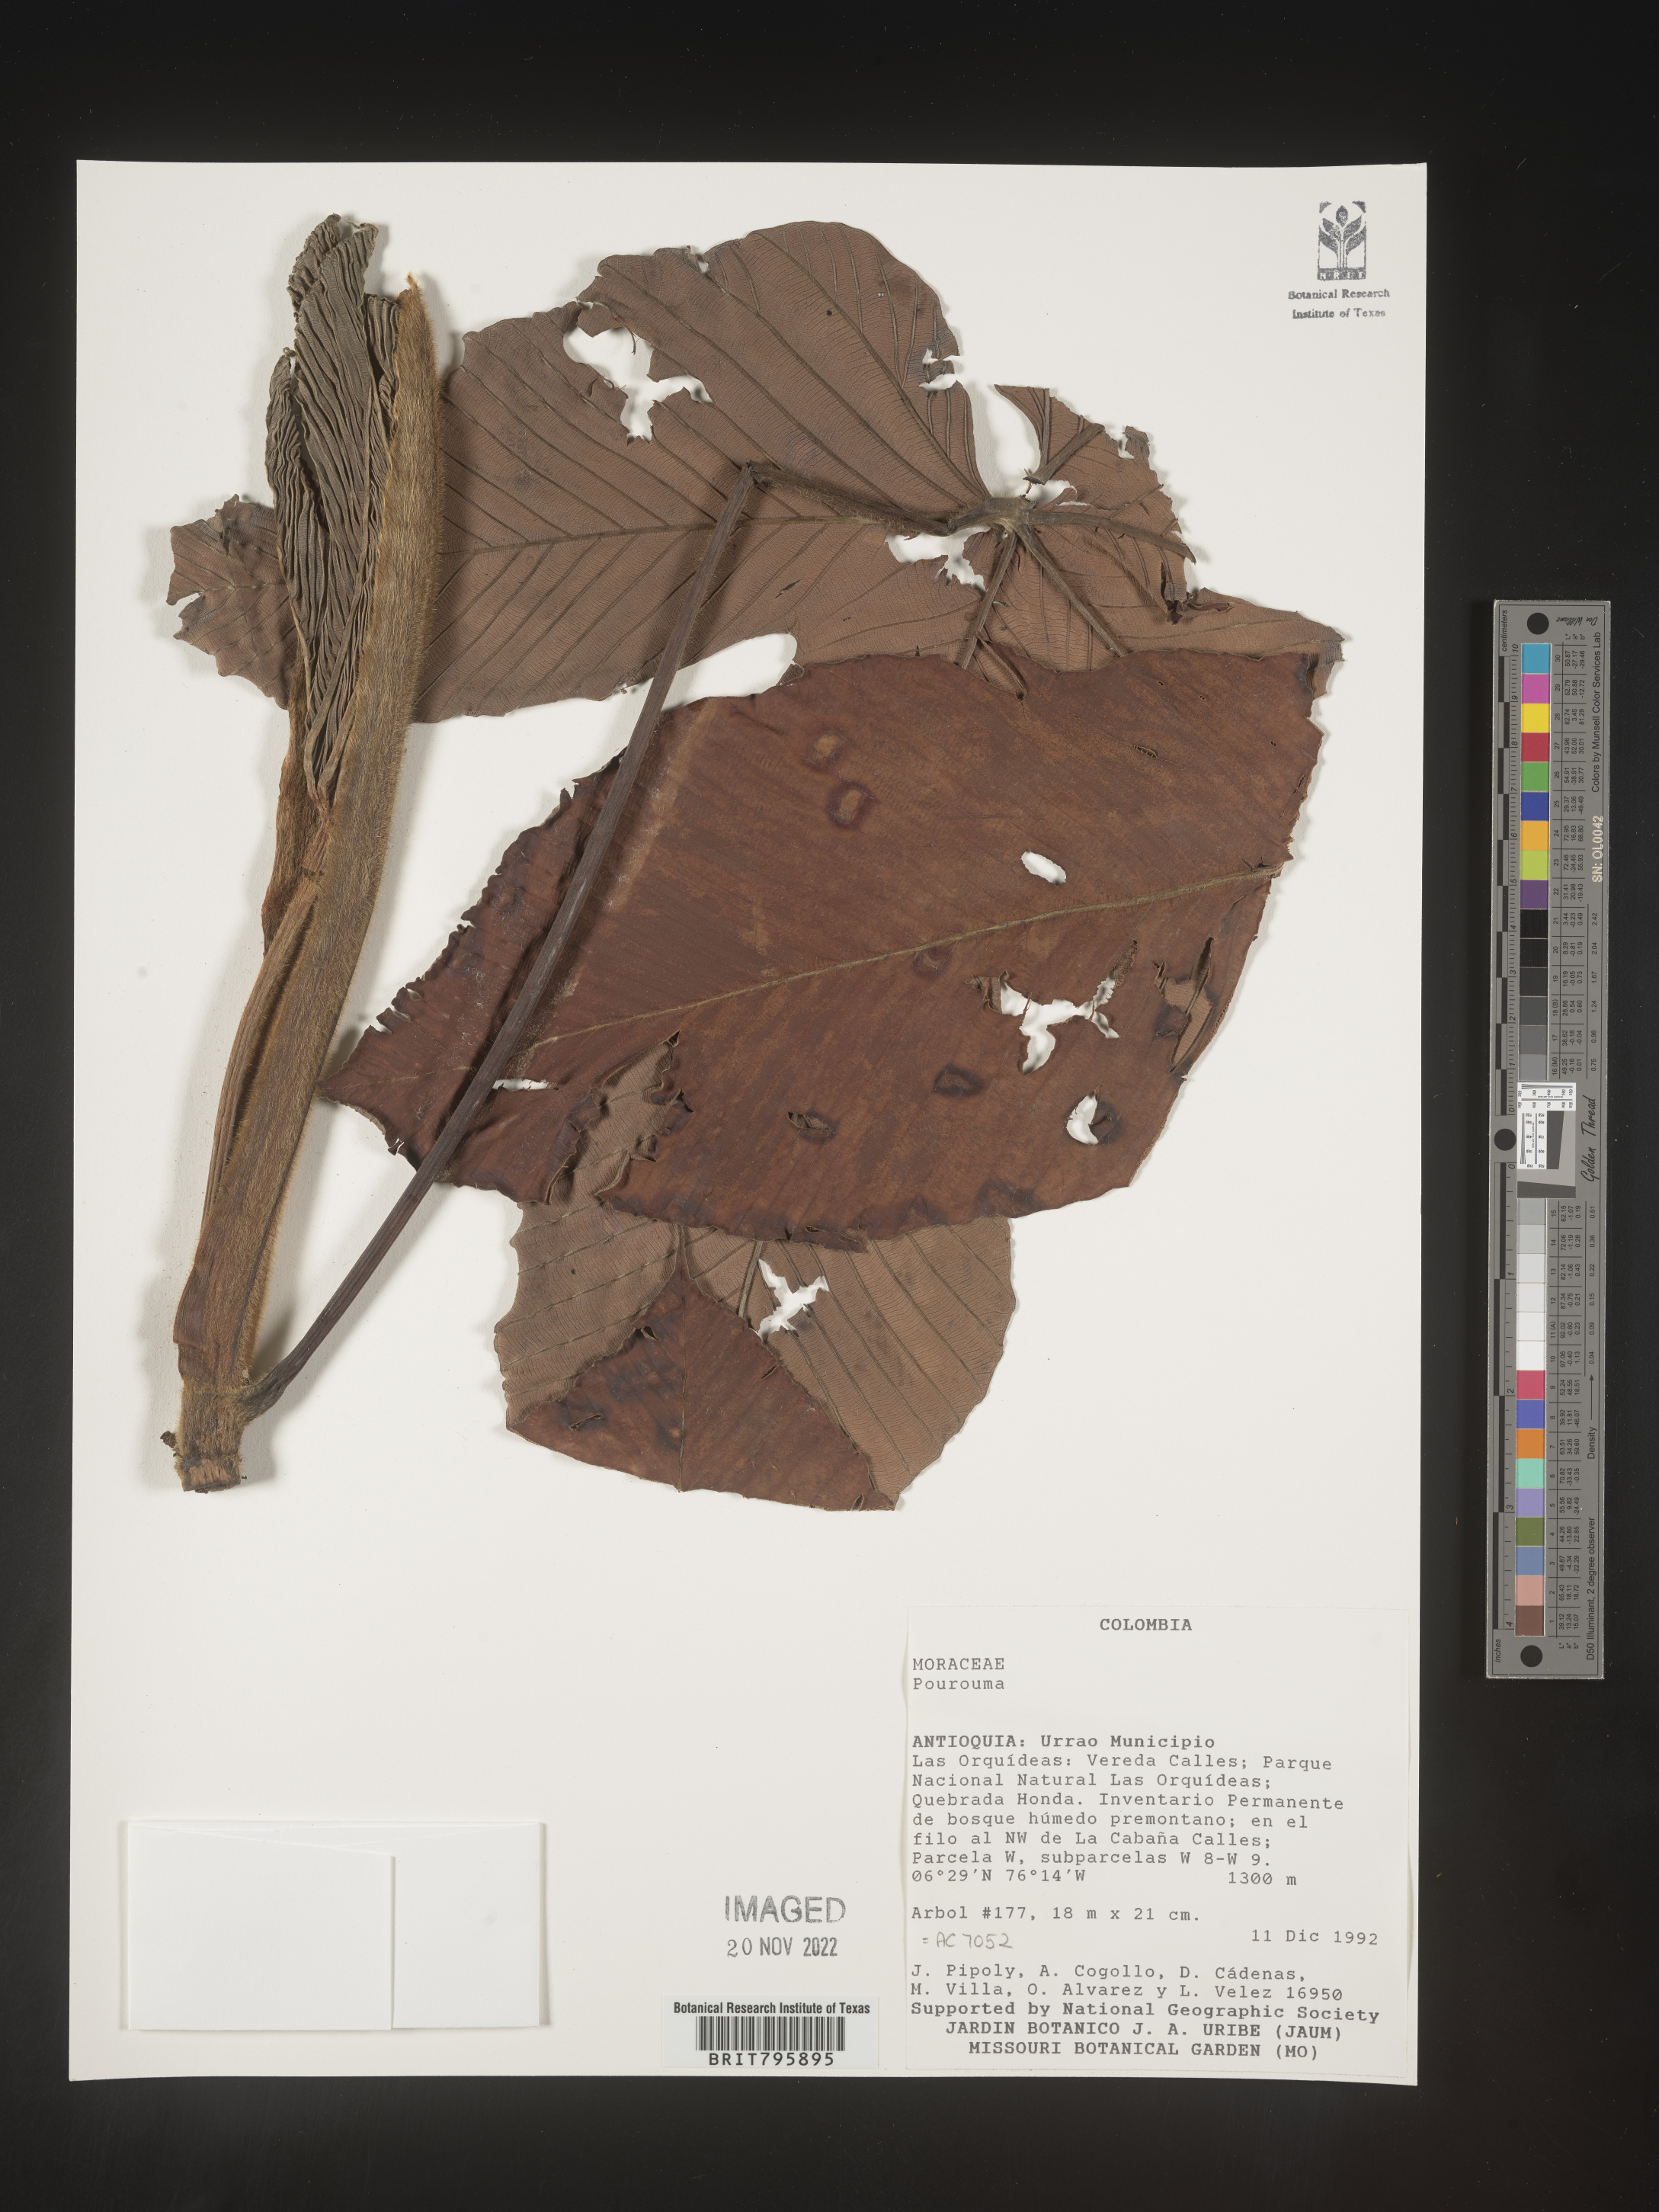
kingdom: Plantae
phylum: Tracheophyta
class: Magnoliopsida
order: Rosales
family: Urticaceae
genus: Pourouma
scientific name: Pourouma
